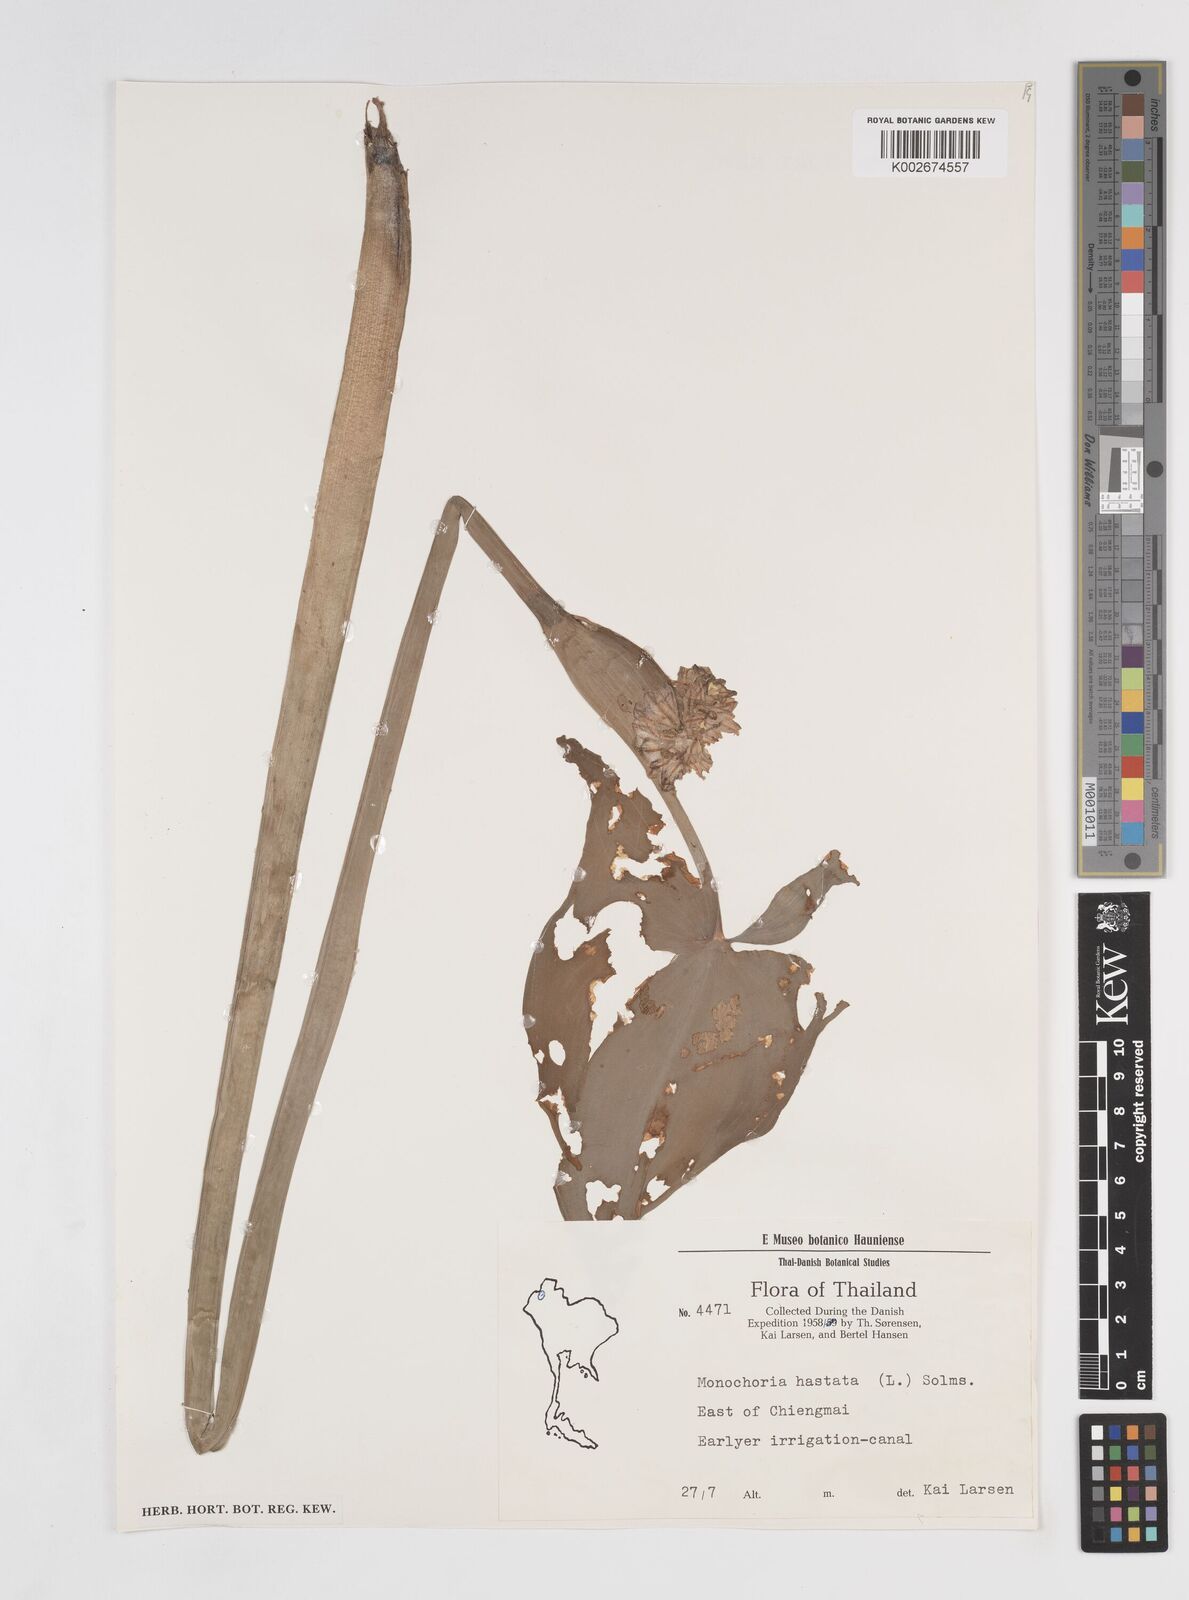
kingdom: Plantae
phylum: Tracheophyta
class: Liliopsida
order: Commelinales
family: Pontederiaceae
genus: Pontederia
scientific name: Pontederia hastata
